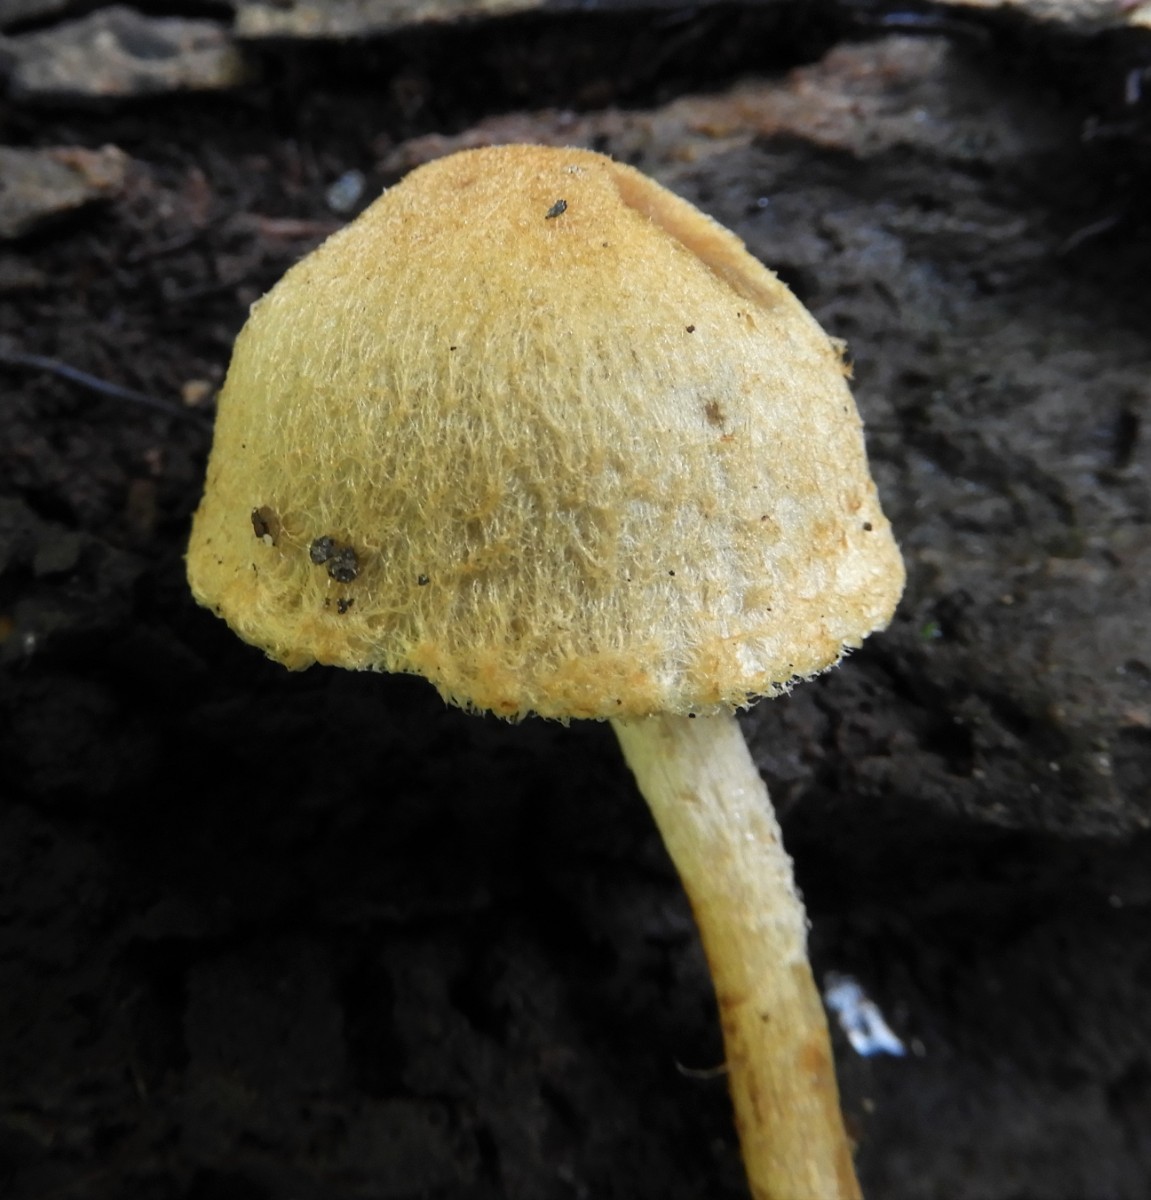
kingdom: Fungi
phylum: Basidiomycota
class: Agaricomycetes
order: Agaricales
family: Psathyrellaceae
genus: Lacrymaria
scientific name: Lacrymaria pyrotricha
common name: ildhåret mørkhat
